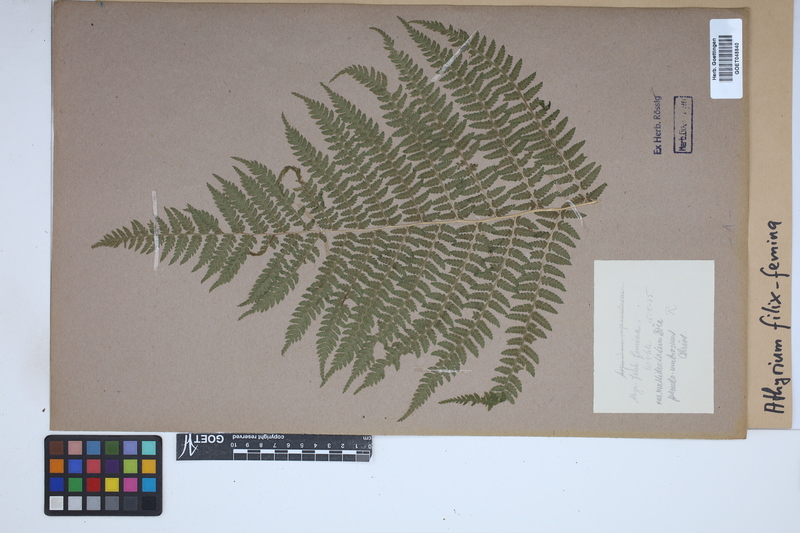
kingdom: Plantae
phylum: Tracheophyta
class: Polypodiopsida
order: Polypodiales
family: Athyriaceae
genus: Athyrium
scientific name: Athyrium filix-femina
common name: Lady fern
